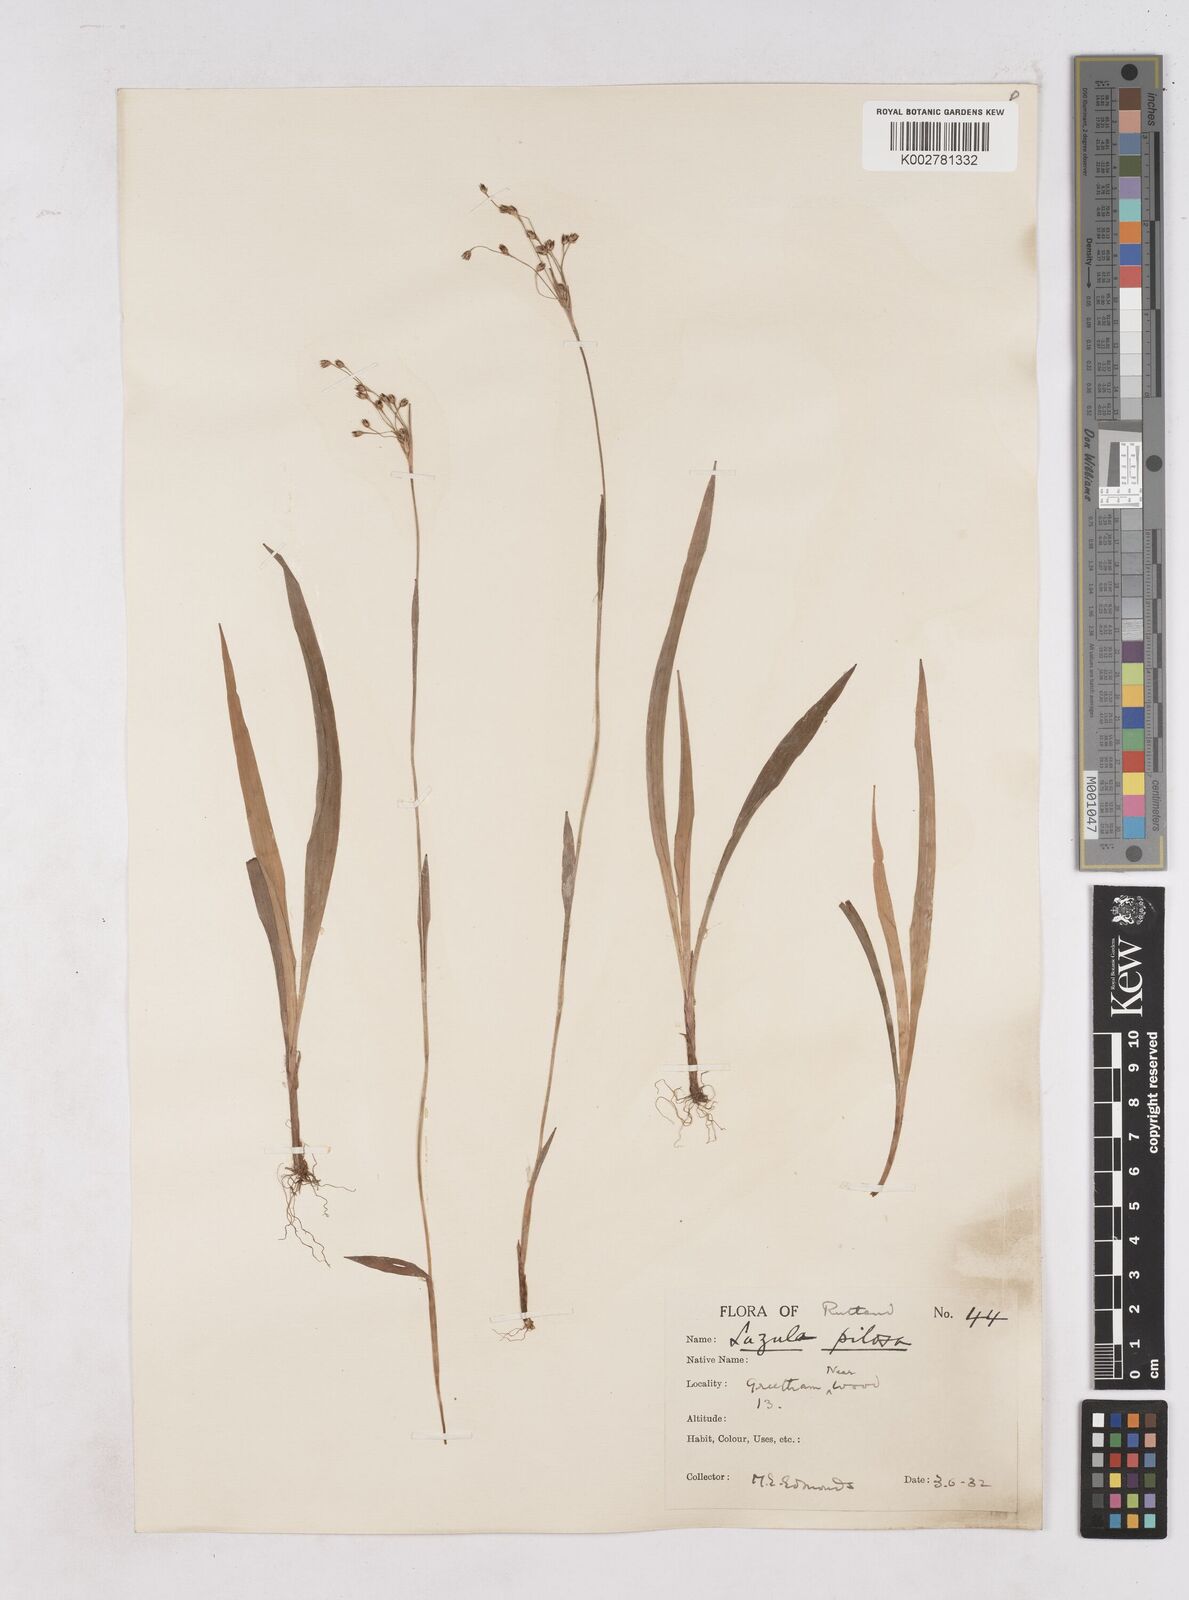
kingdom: Plantae
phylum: Tracheophyta
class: Liliopsida
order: Poales
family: Juncaceae
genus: Luzula
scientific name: Luzula pilosa
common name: Hairy wood-rush
